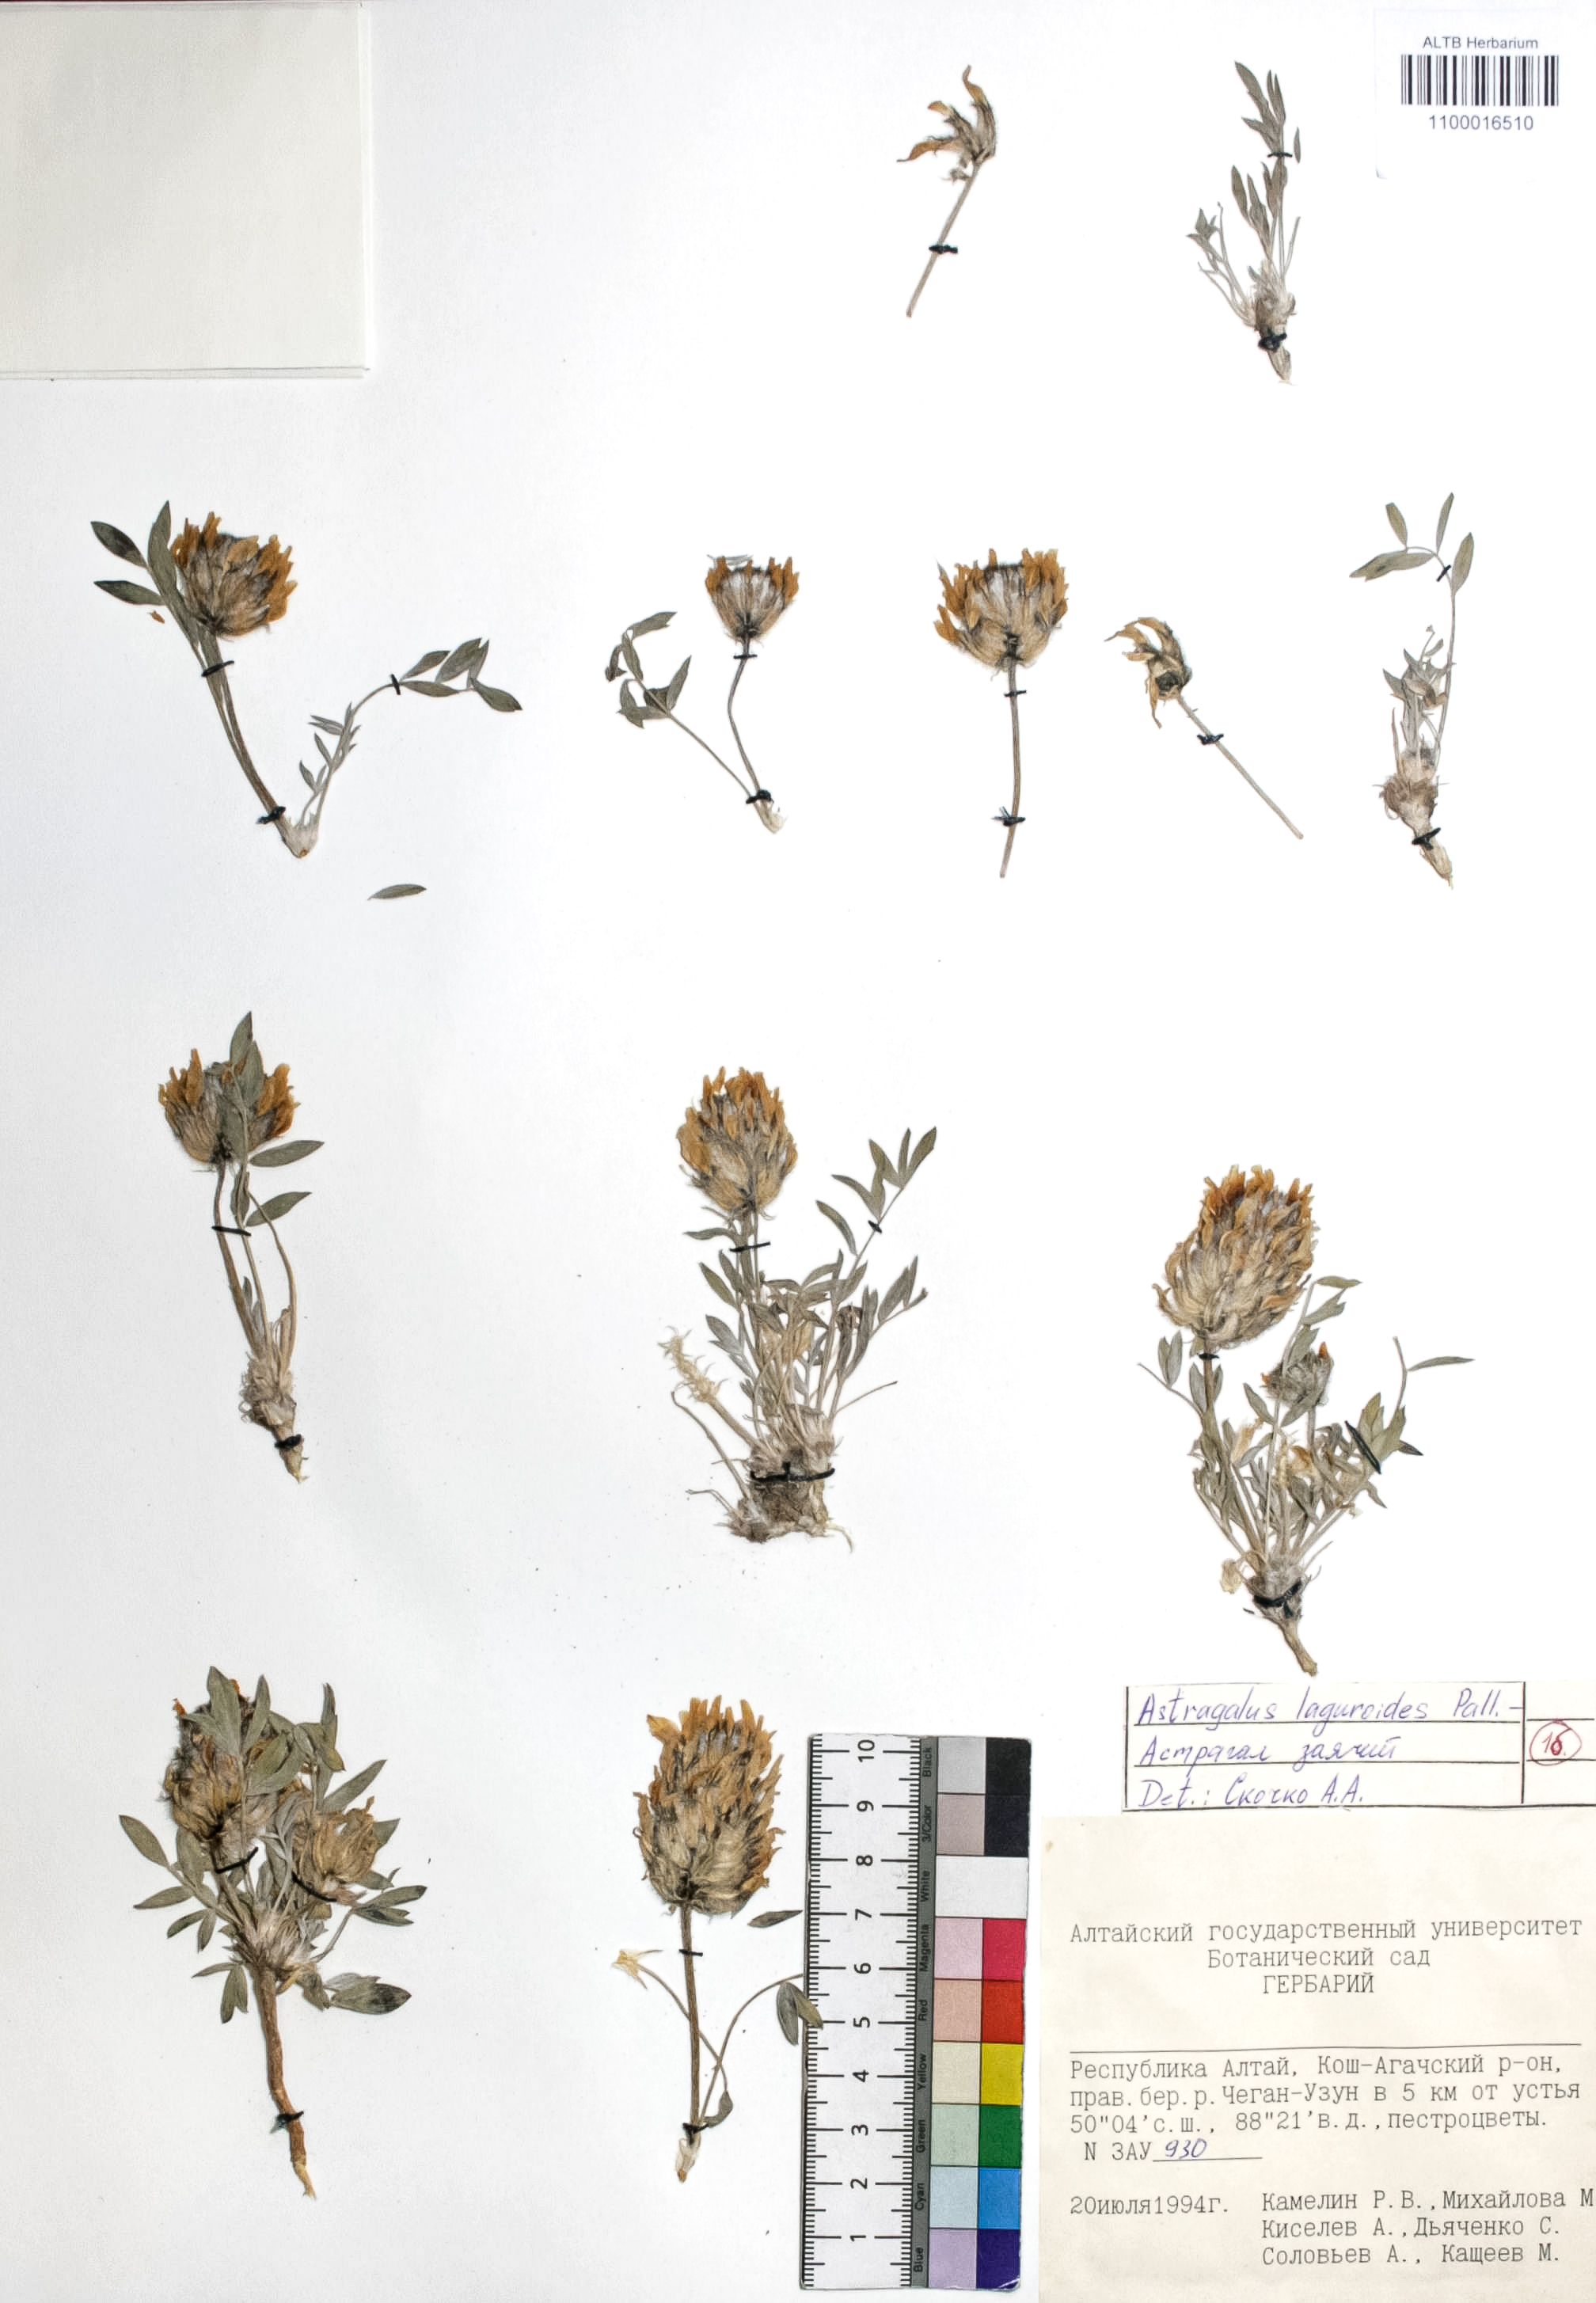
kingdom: Plantae
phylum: Tracheophyta
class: Magnoliopsida
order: Fabales
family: Fabaceae
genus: Astragalus
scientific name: Astragalus laguroides
